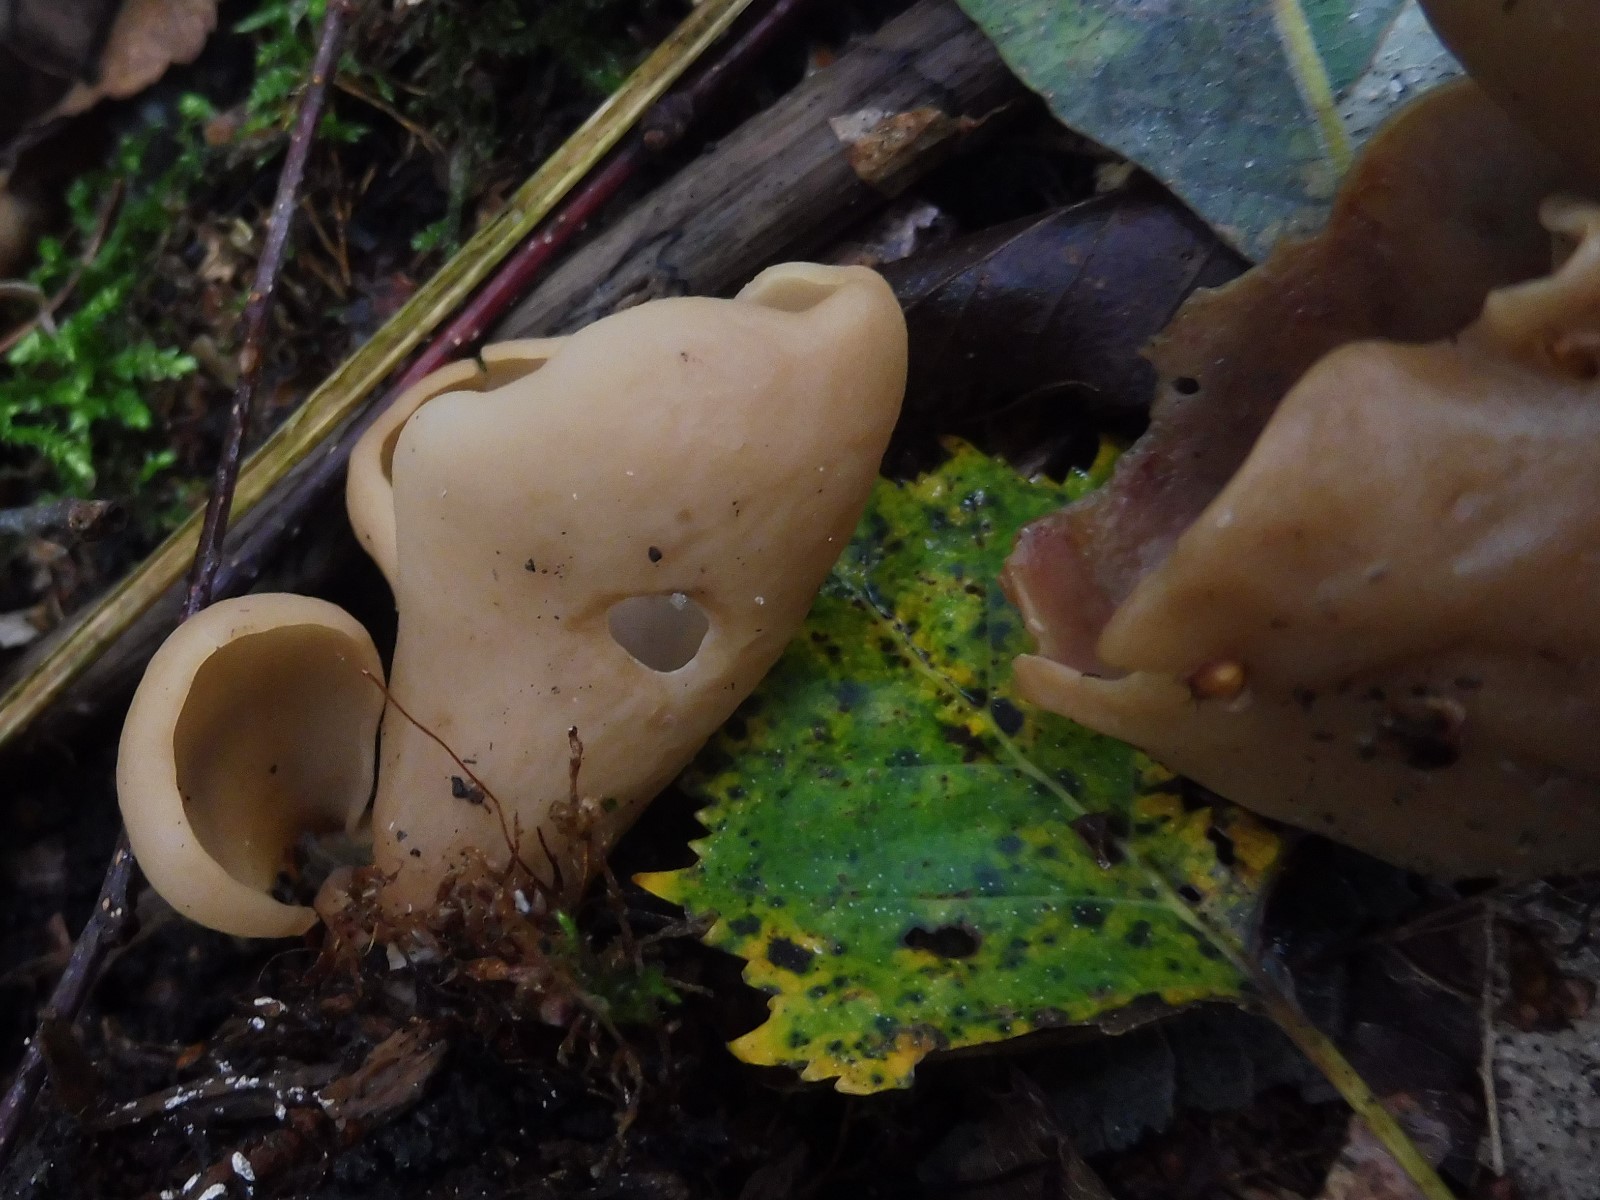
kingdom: Fungi
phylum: Ascomycota
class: Pezizomycetes
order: Pezizales
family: Otideaceae
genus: Otidea
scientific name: Otidea alutacea
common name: læder-ørebæger
